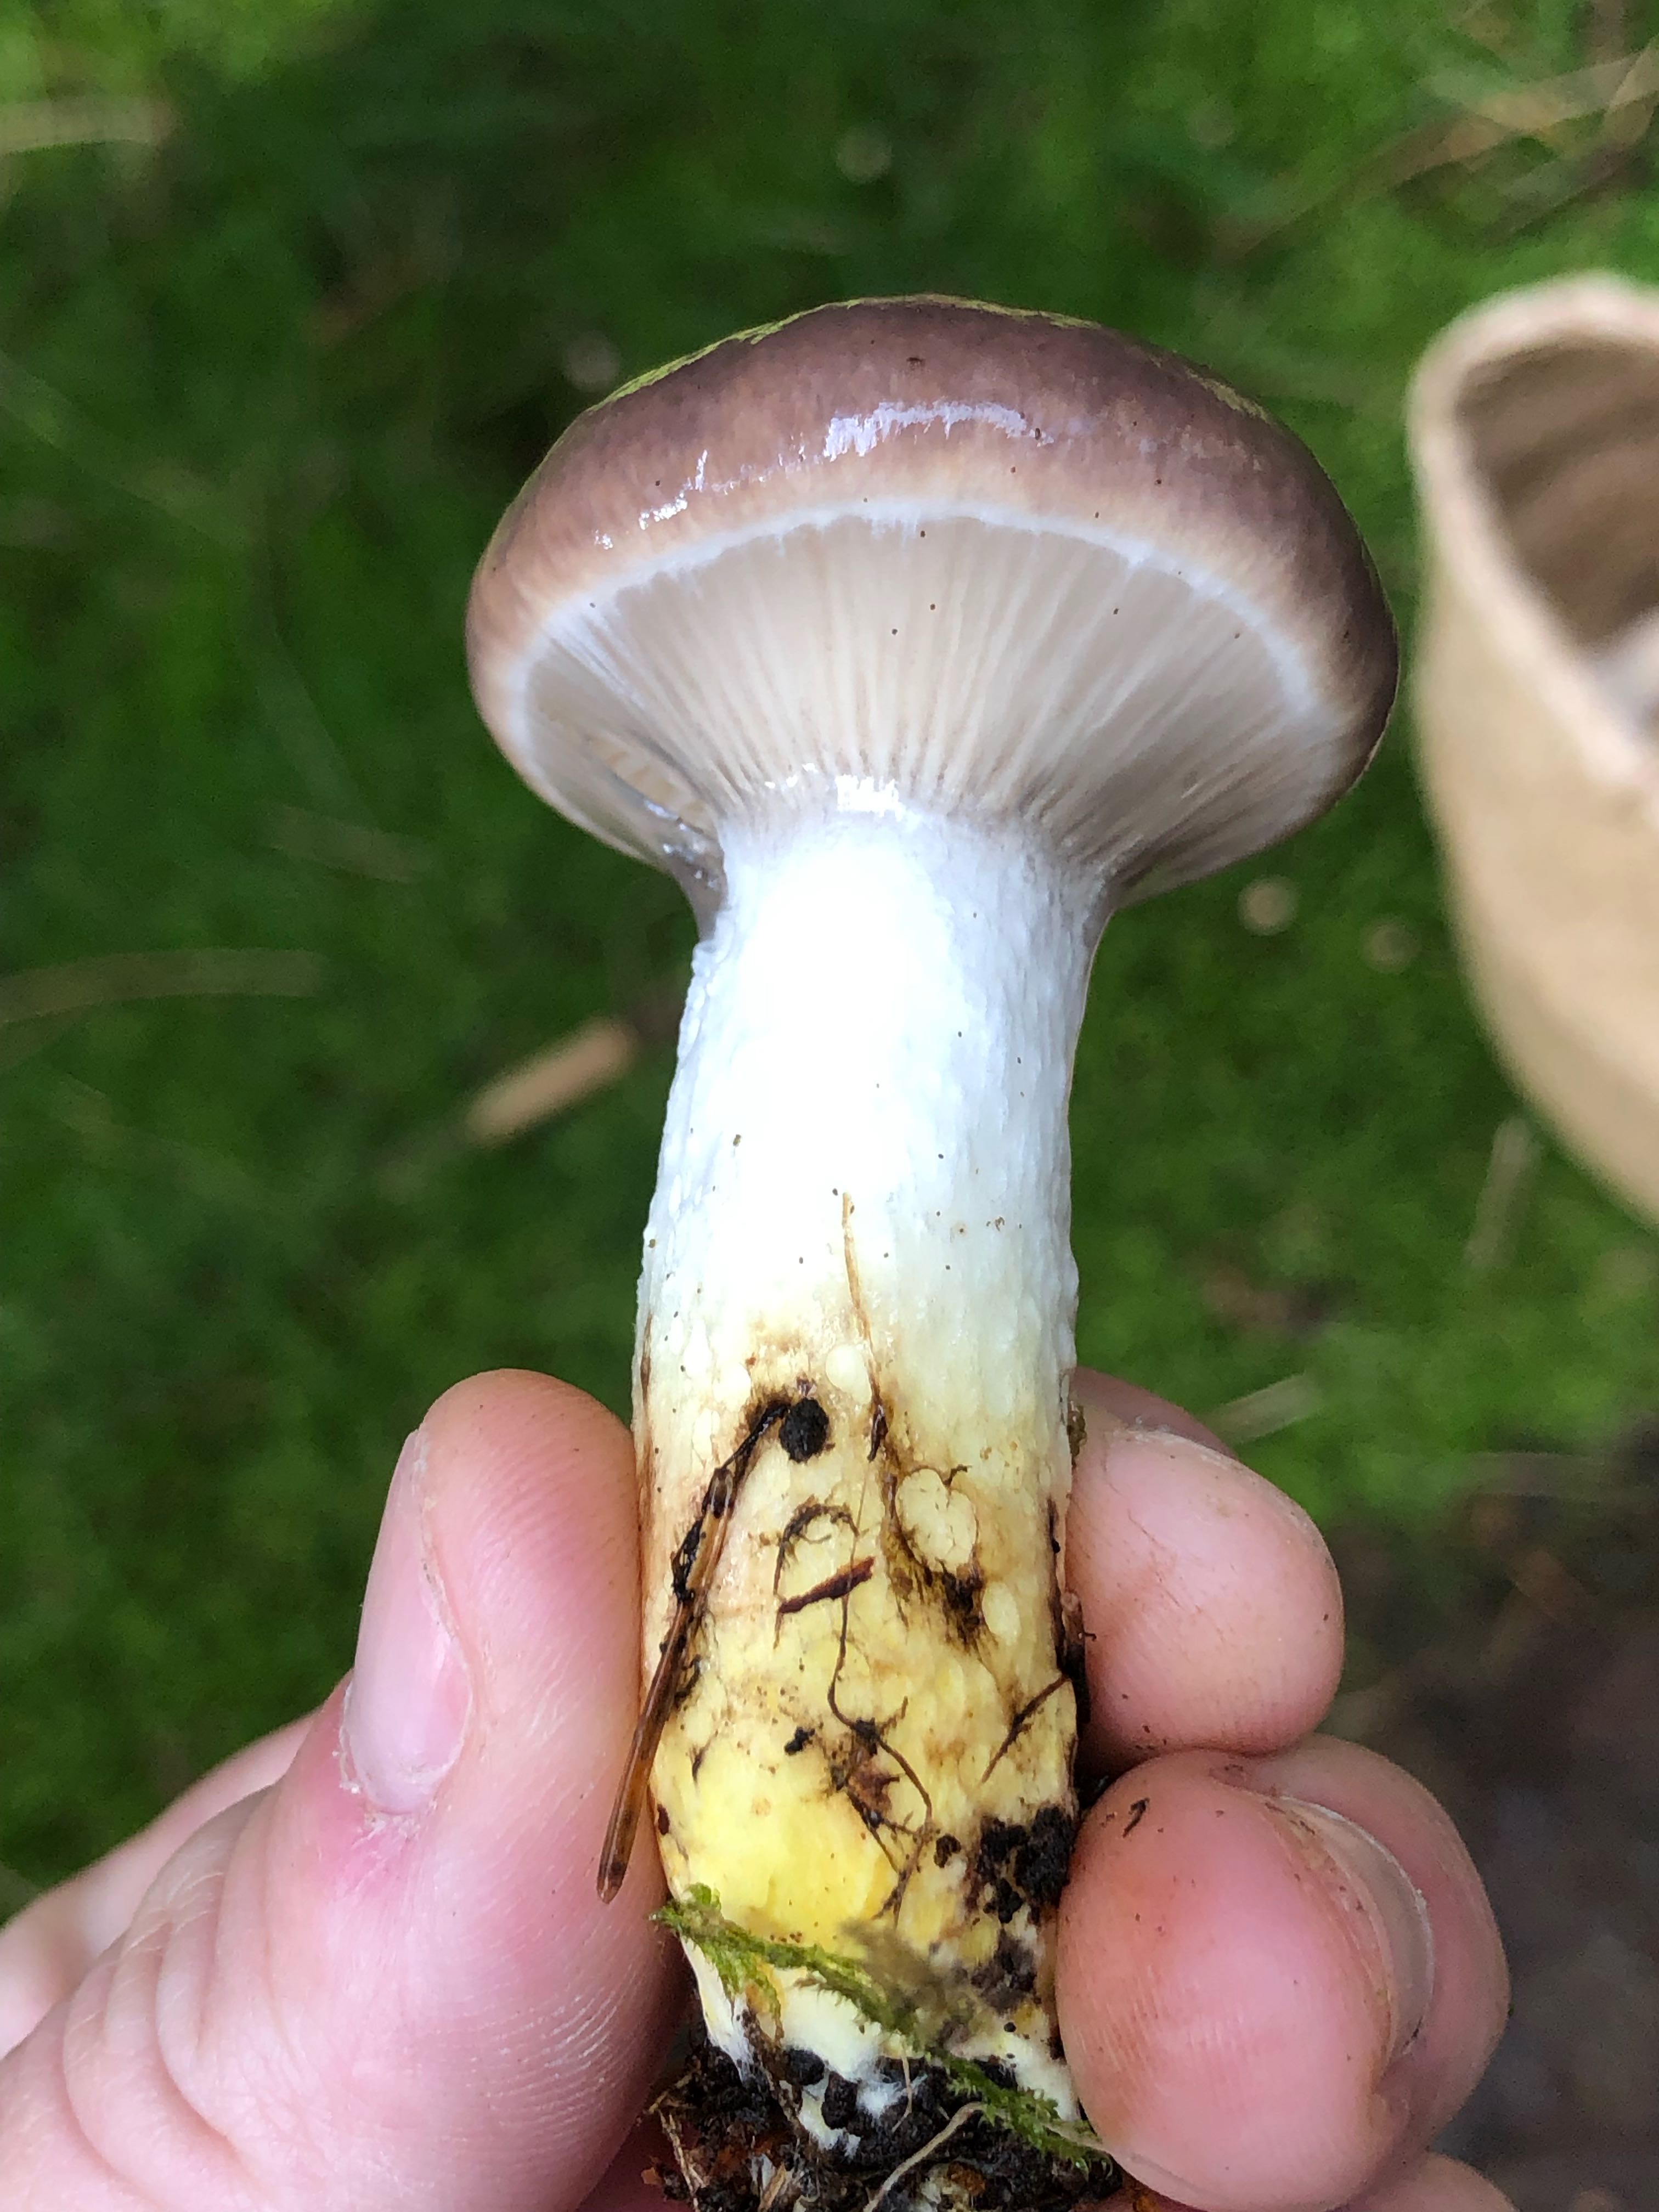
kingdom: Fungi
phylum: Basidiomycota
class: Agaricomycetes
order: Boletales
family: Gomphidiaceae
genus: Gomphidius
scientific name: Gomphidius glutinosus
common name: grå slimslør
